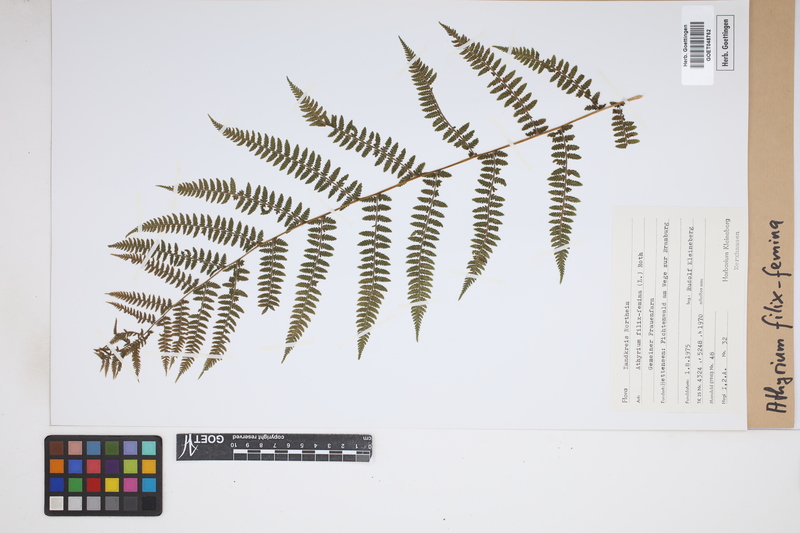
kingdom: Plantae
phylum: Tracheophyta
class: Polypodiopsida
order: Polypodiales
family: Athyriaceae
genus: Athyrium
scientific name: Athyrium filix-femina
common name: Lady fern
